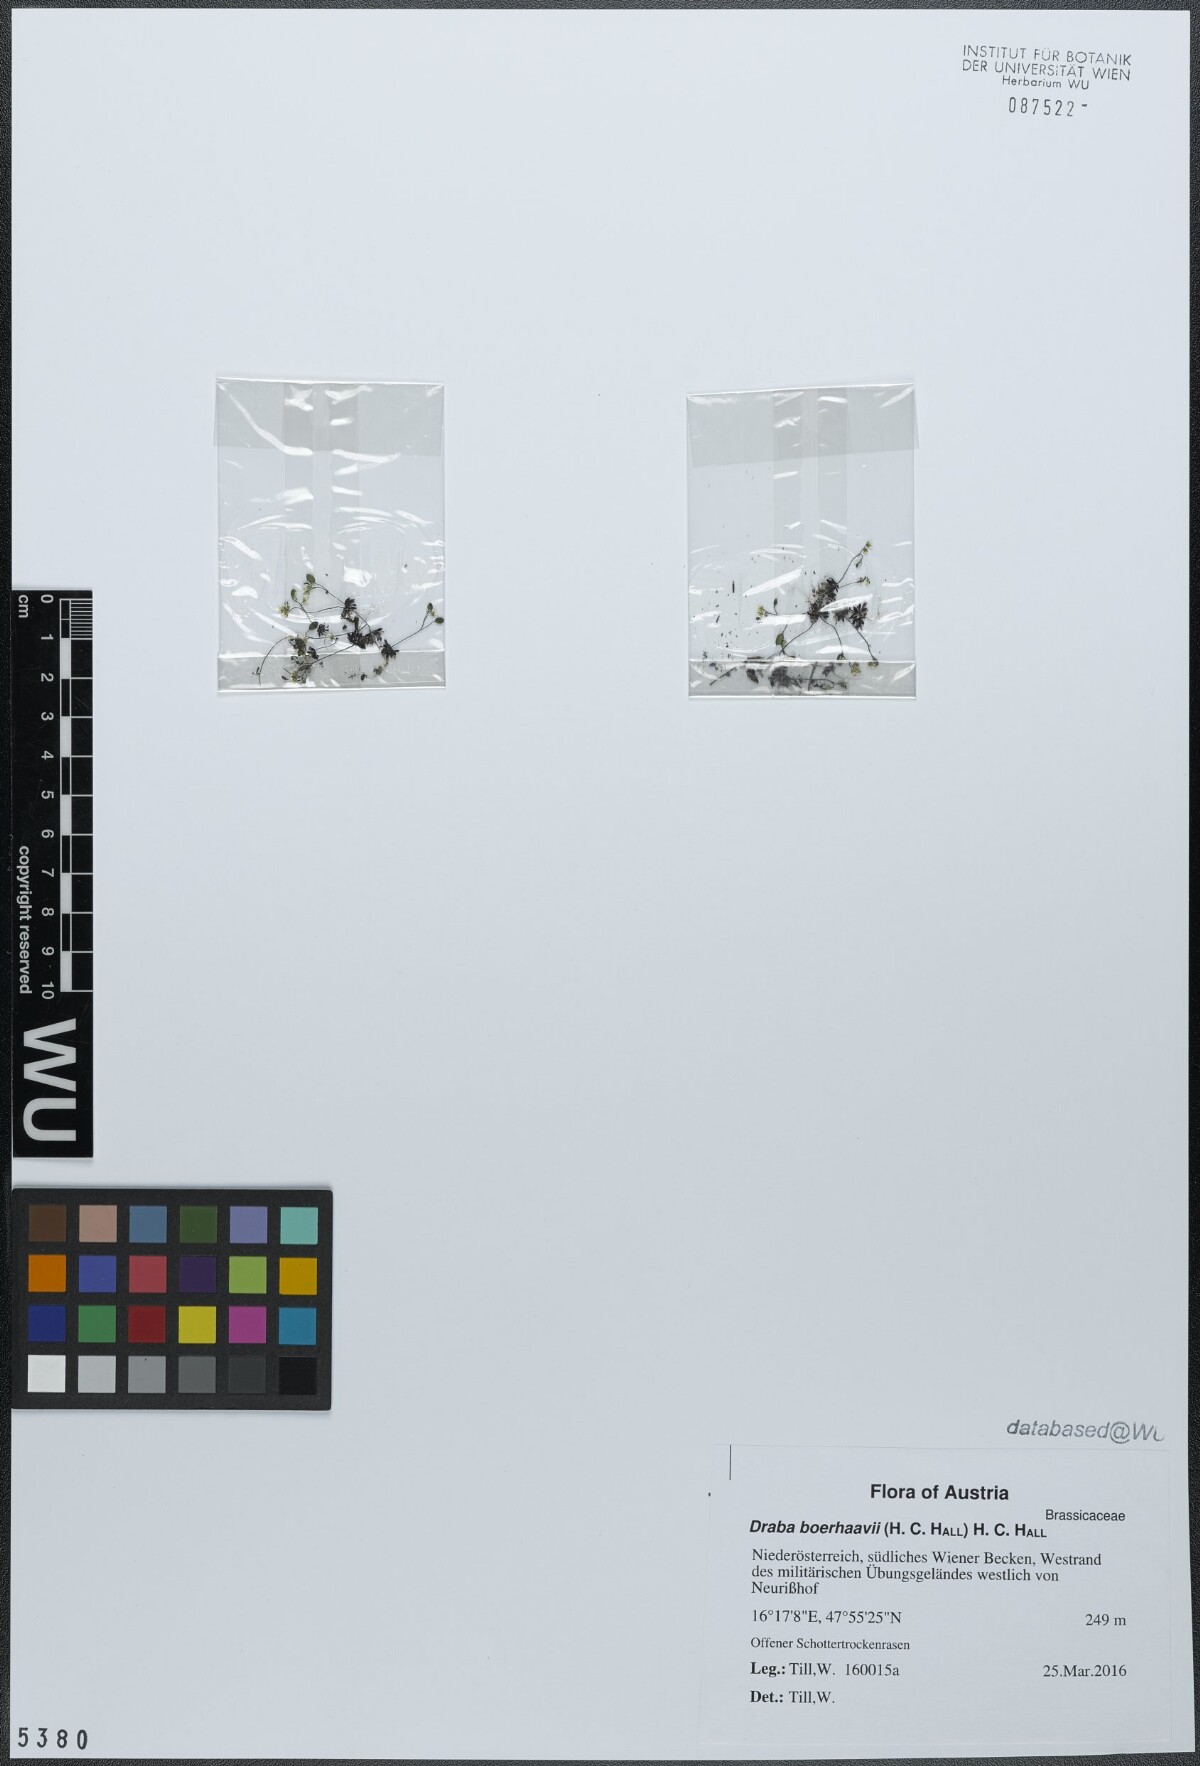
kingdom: Plantae
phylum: Tracheophyta
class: Magnoliopsida
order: Brassicales
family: Brassicaceae
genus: Draba
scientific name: Draba verna
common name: Spring draba
